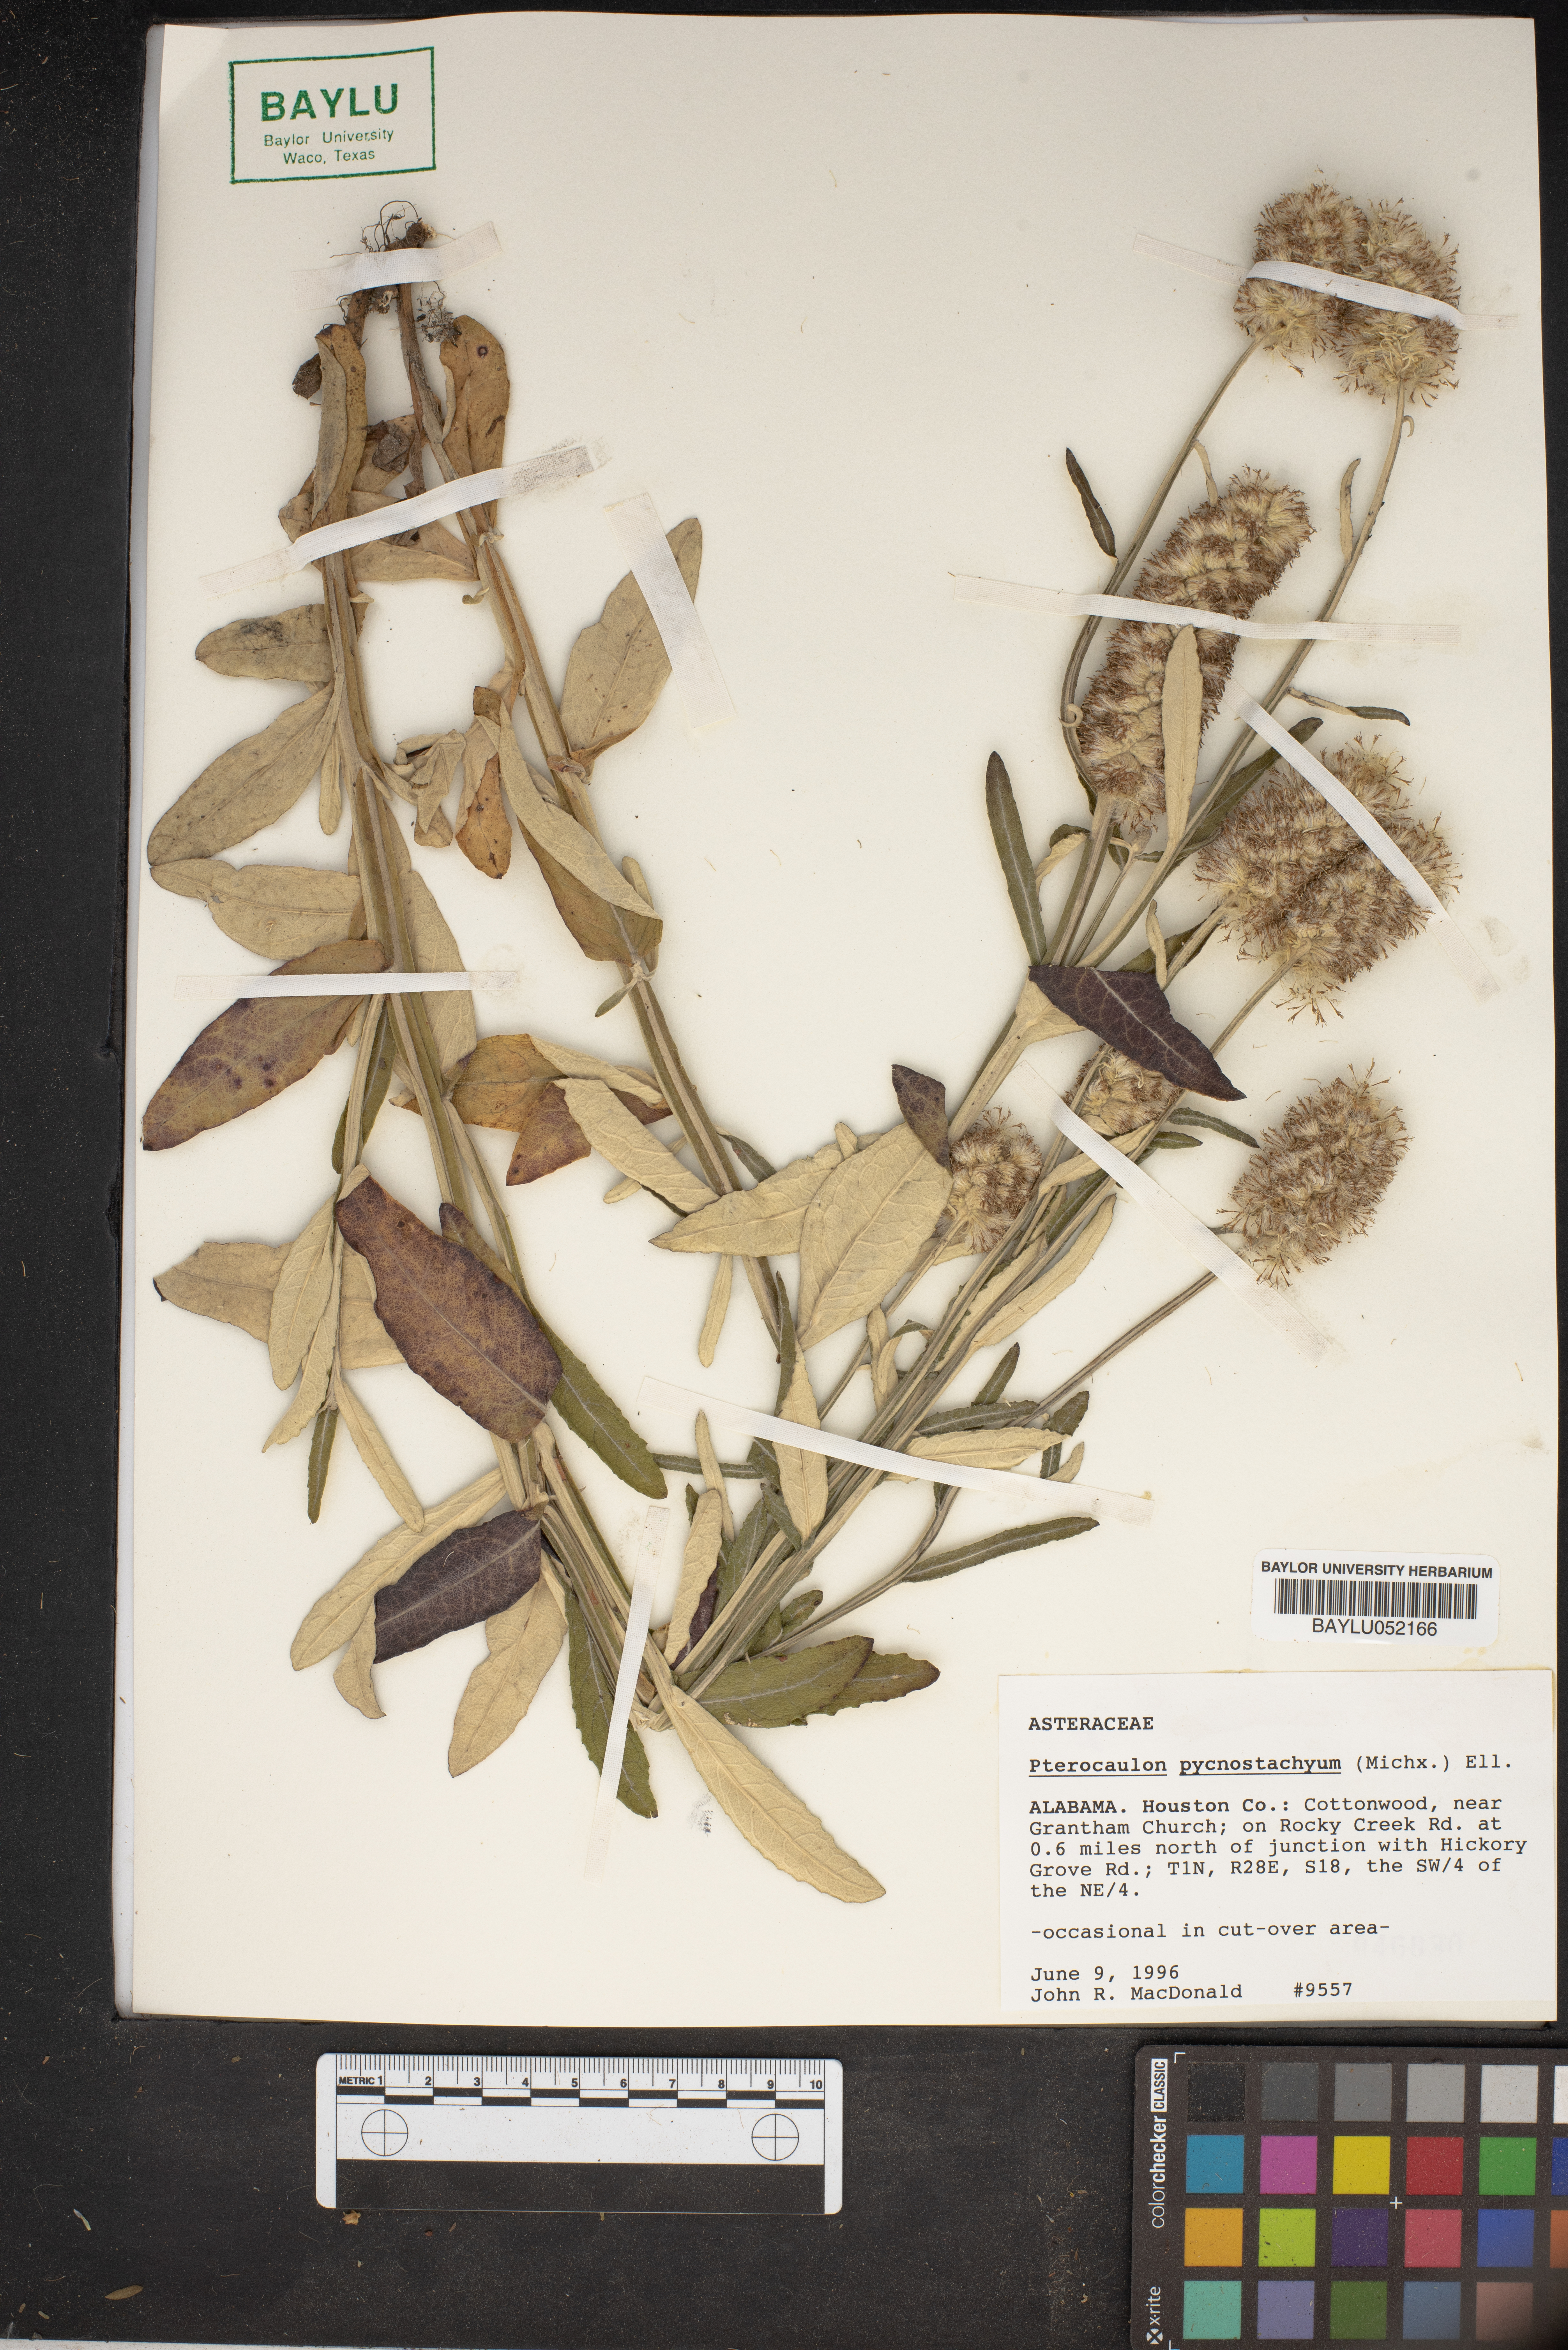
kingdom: Plantae
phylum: Tracheophyta
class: Magnoliopsida
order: Asterales
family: Asteraceae
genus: Pterocaulon
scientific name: Pterocaulon pycnostachyum
